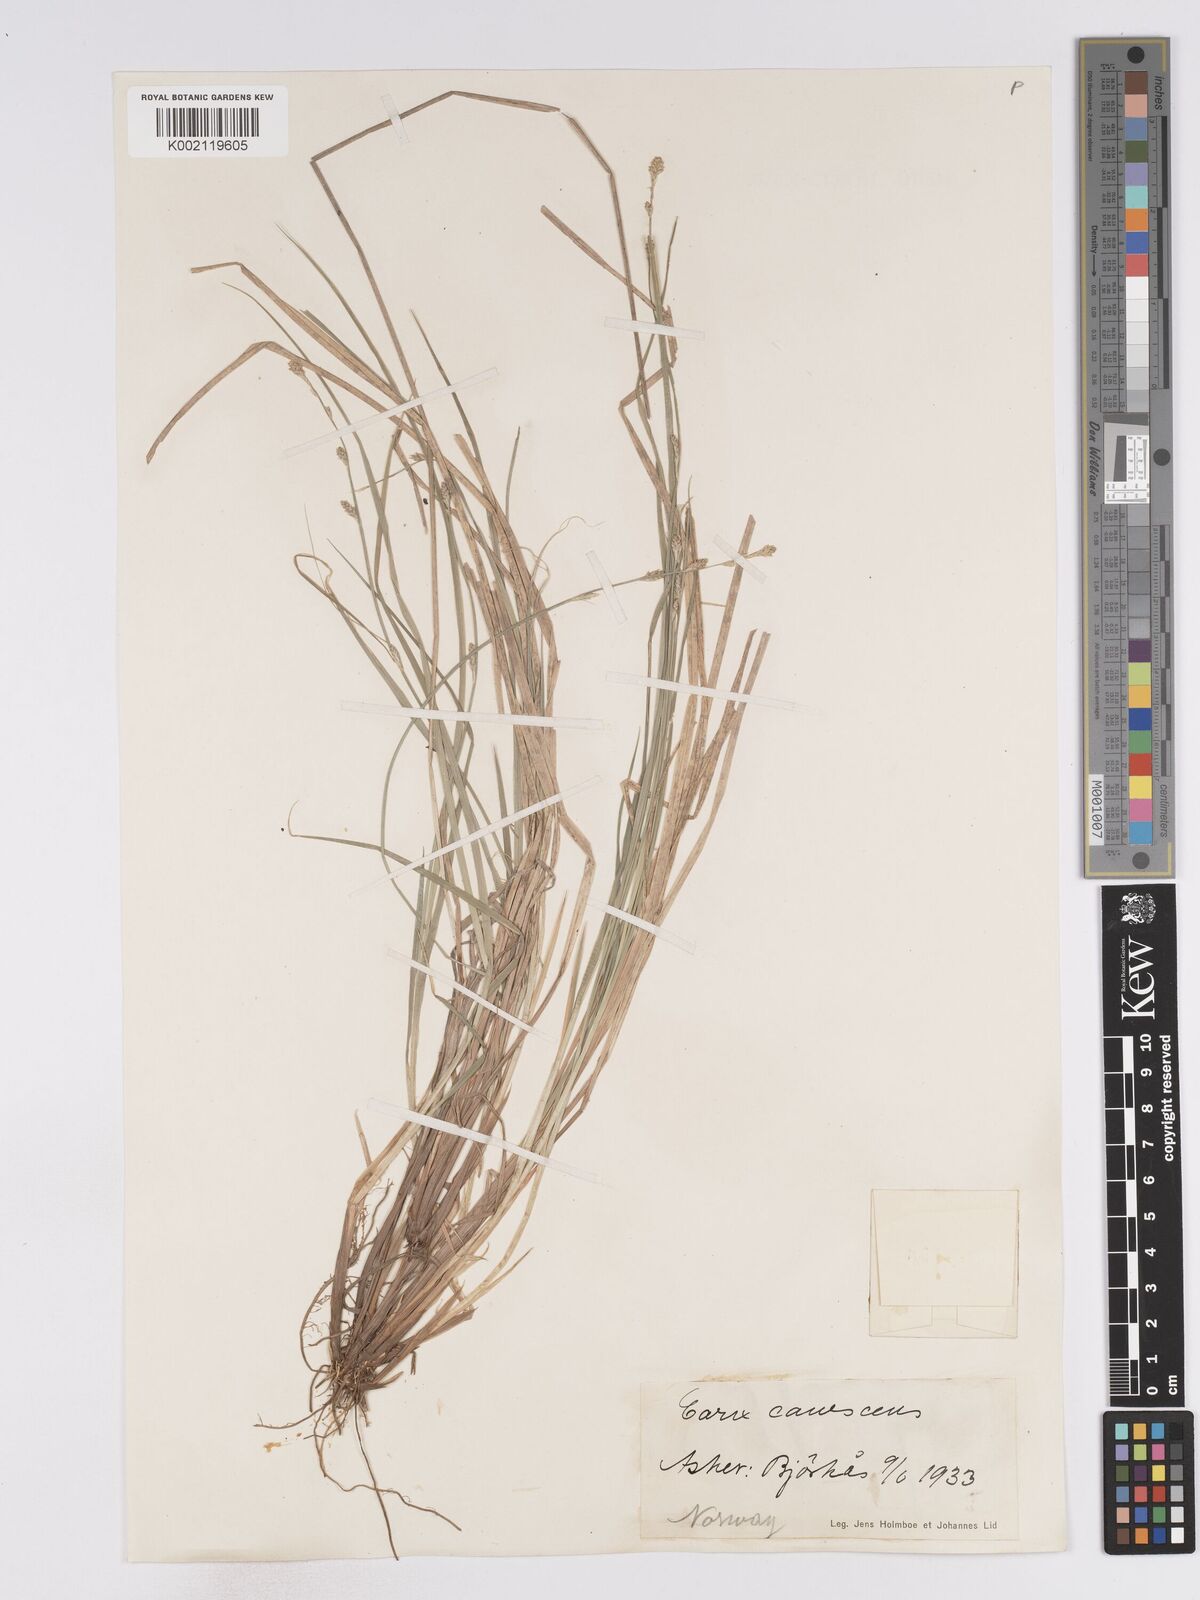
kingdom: Plantae
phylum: Tracheophyta
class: Liliopsida
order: Poales
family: Cyperaceae
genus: Carex
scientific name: Carex curta
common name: White sedge
